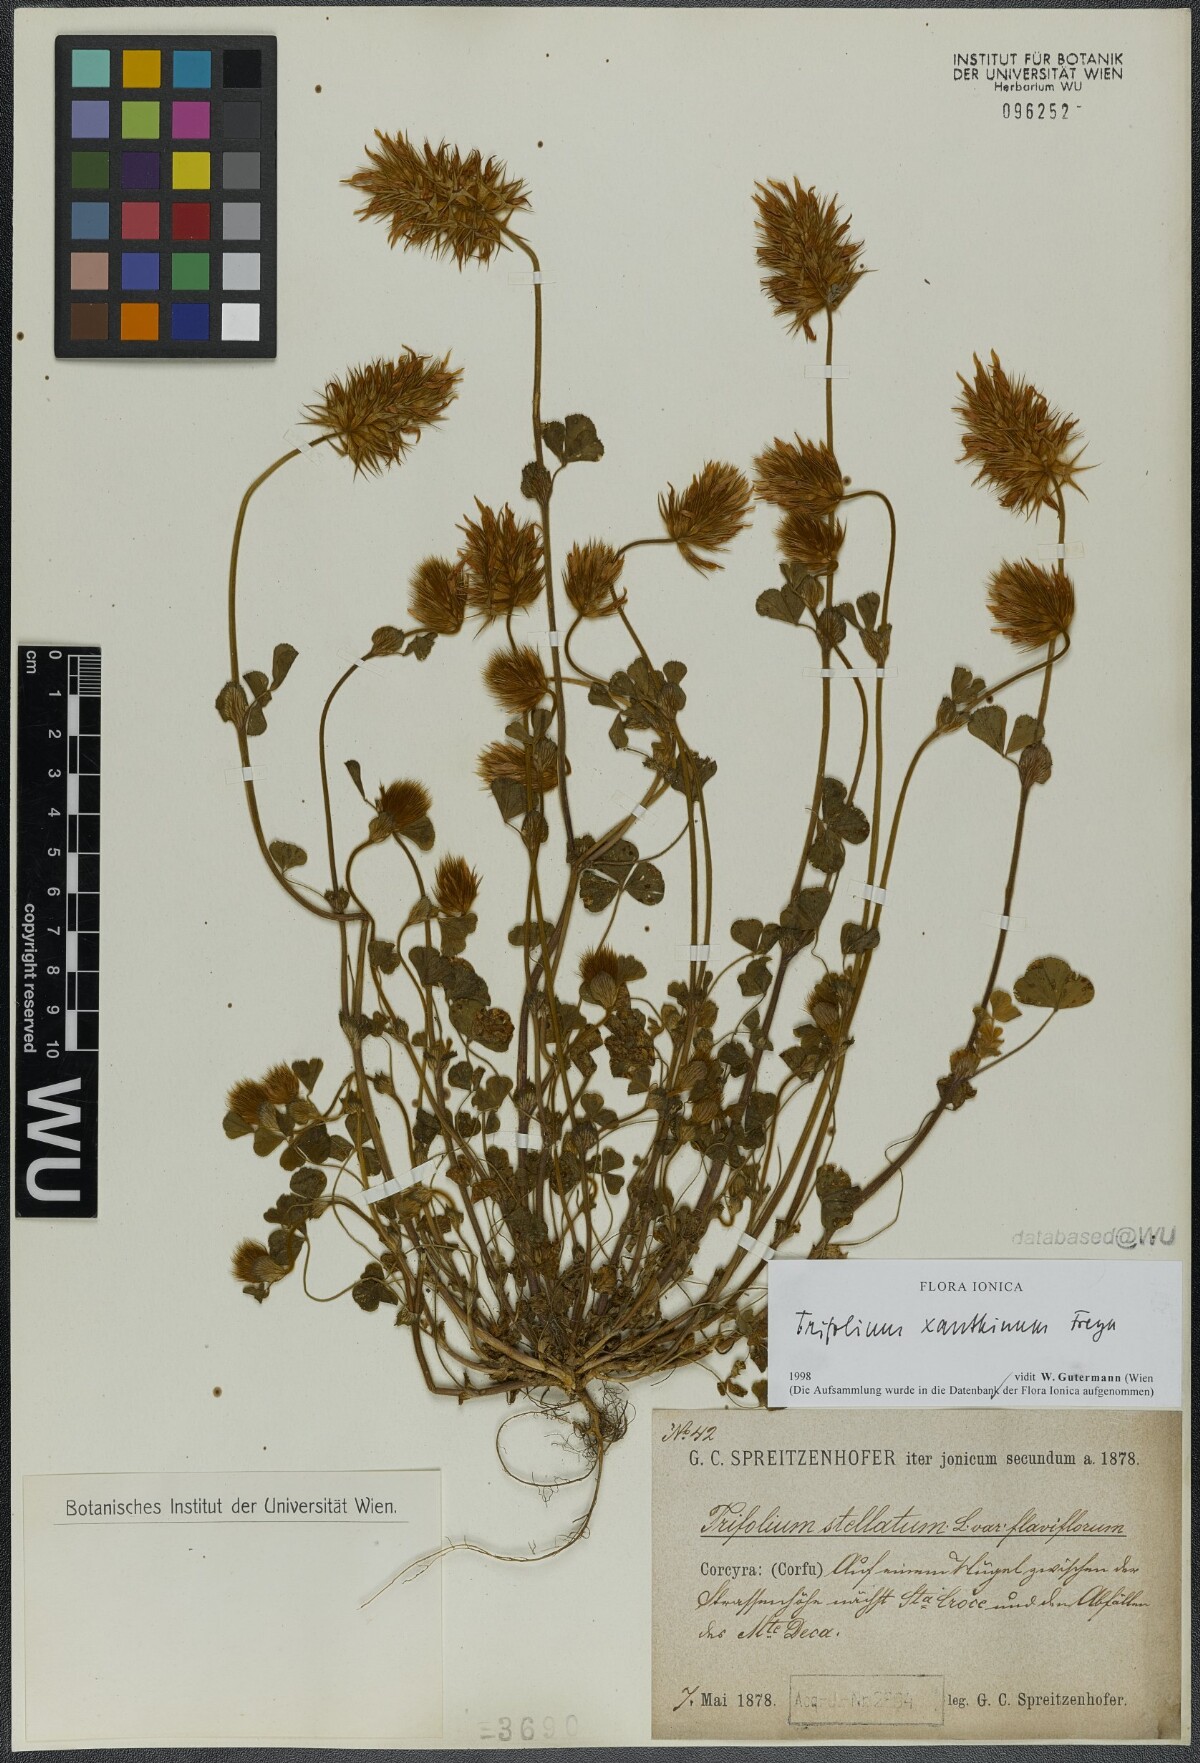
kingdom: Plantae
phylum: Tracheophyta
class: Magnoliopsida
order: Fabales
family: Fabaceae
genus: Trifolium
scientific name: Trifolium xanthinum
